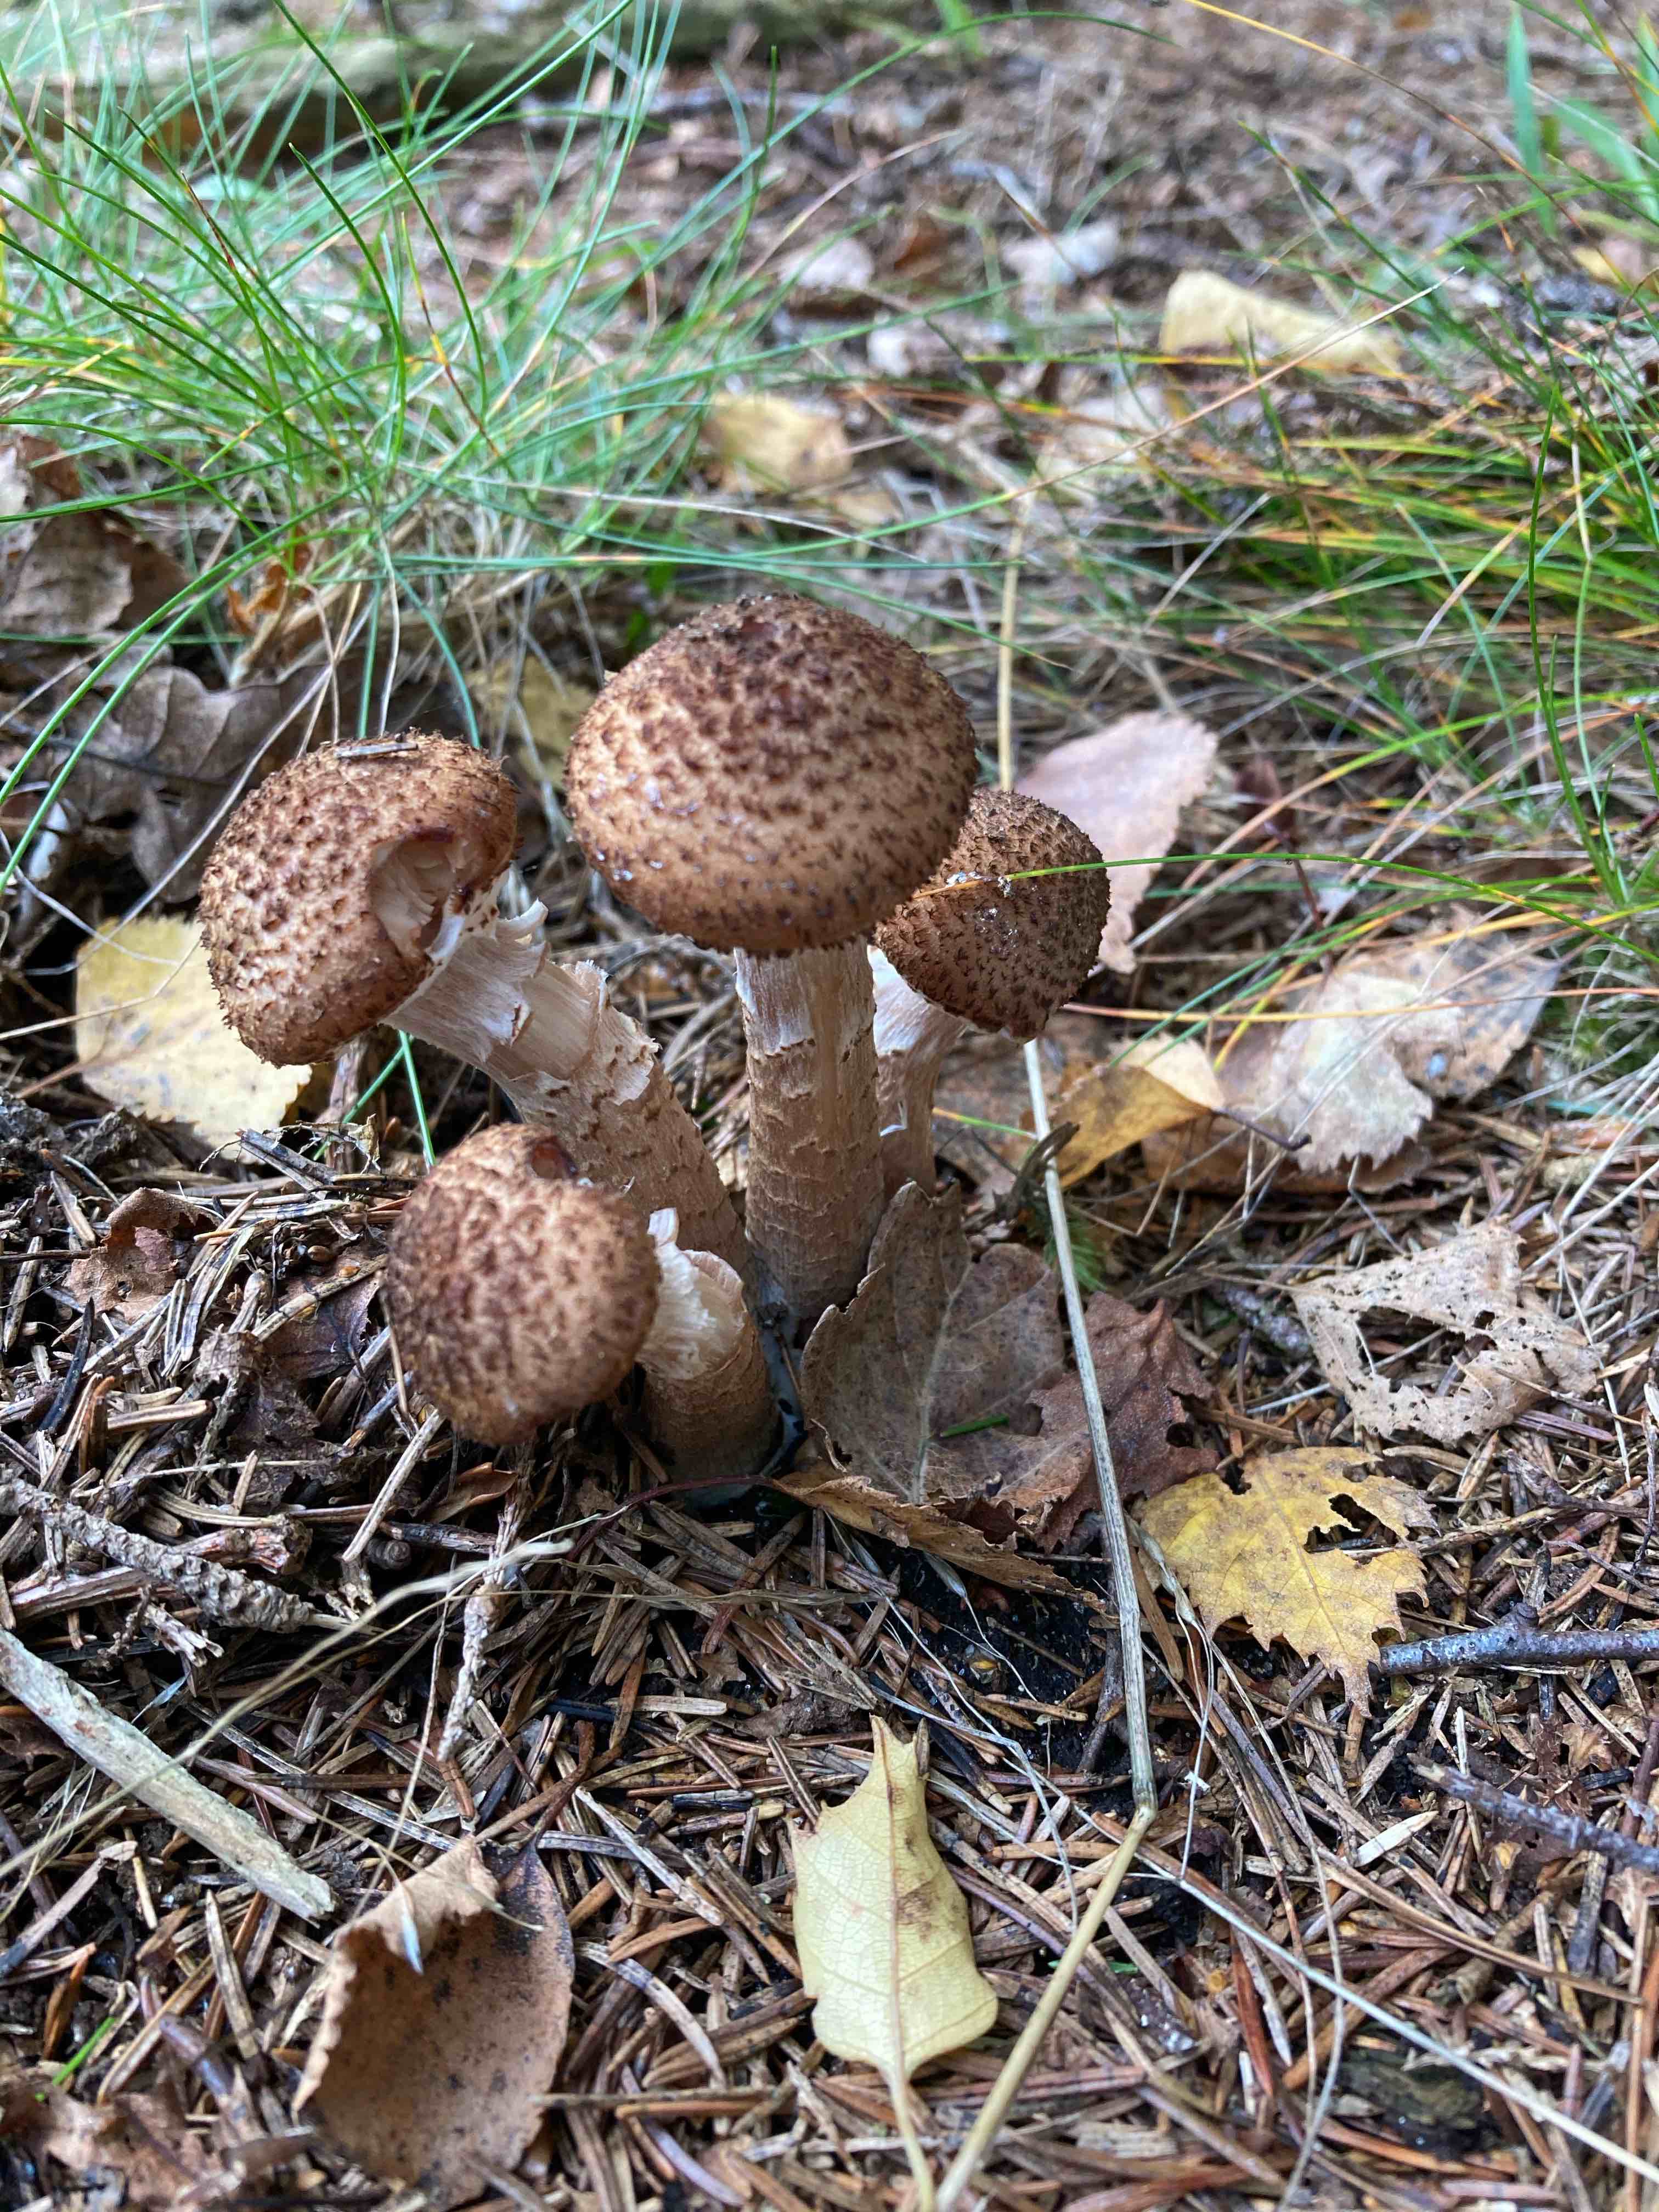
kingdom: Fungi
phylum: Basidiomycota
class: Agaricomycetes
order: Agaricales
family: Physalacriaceae
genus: Armillaria
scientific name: Armillaria ostoyae
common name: mørk honningsvamp
